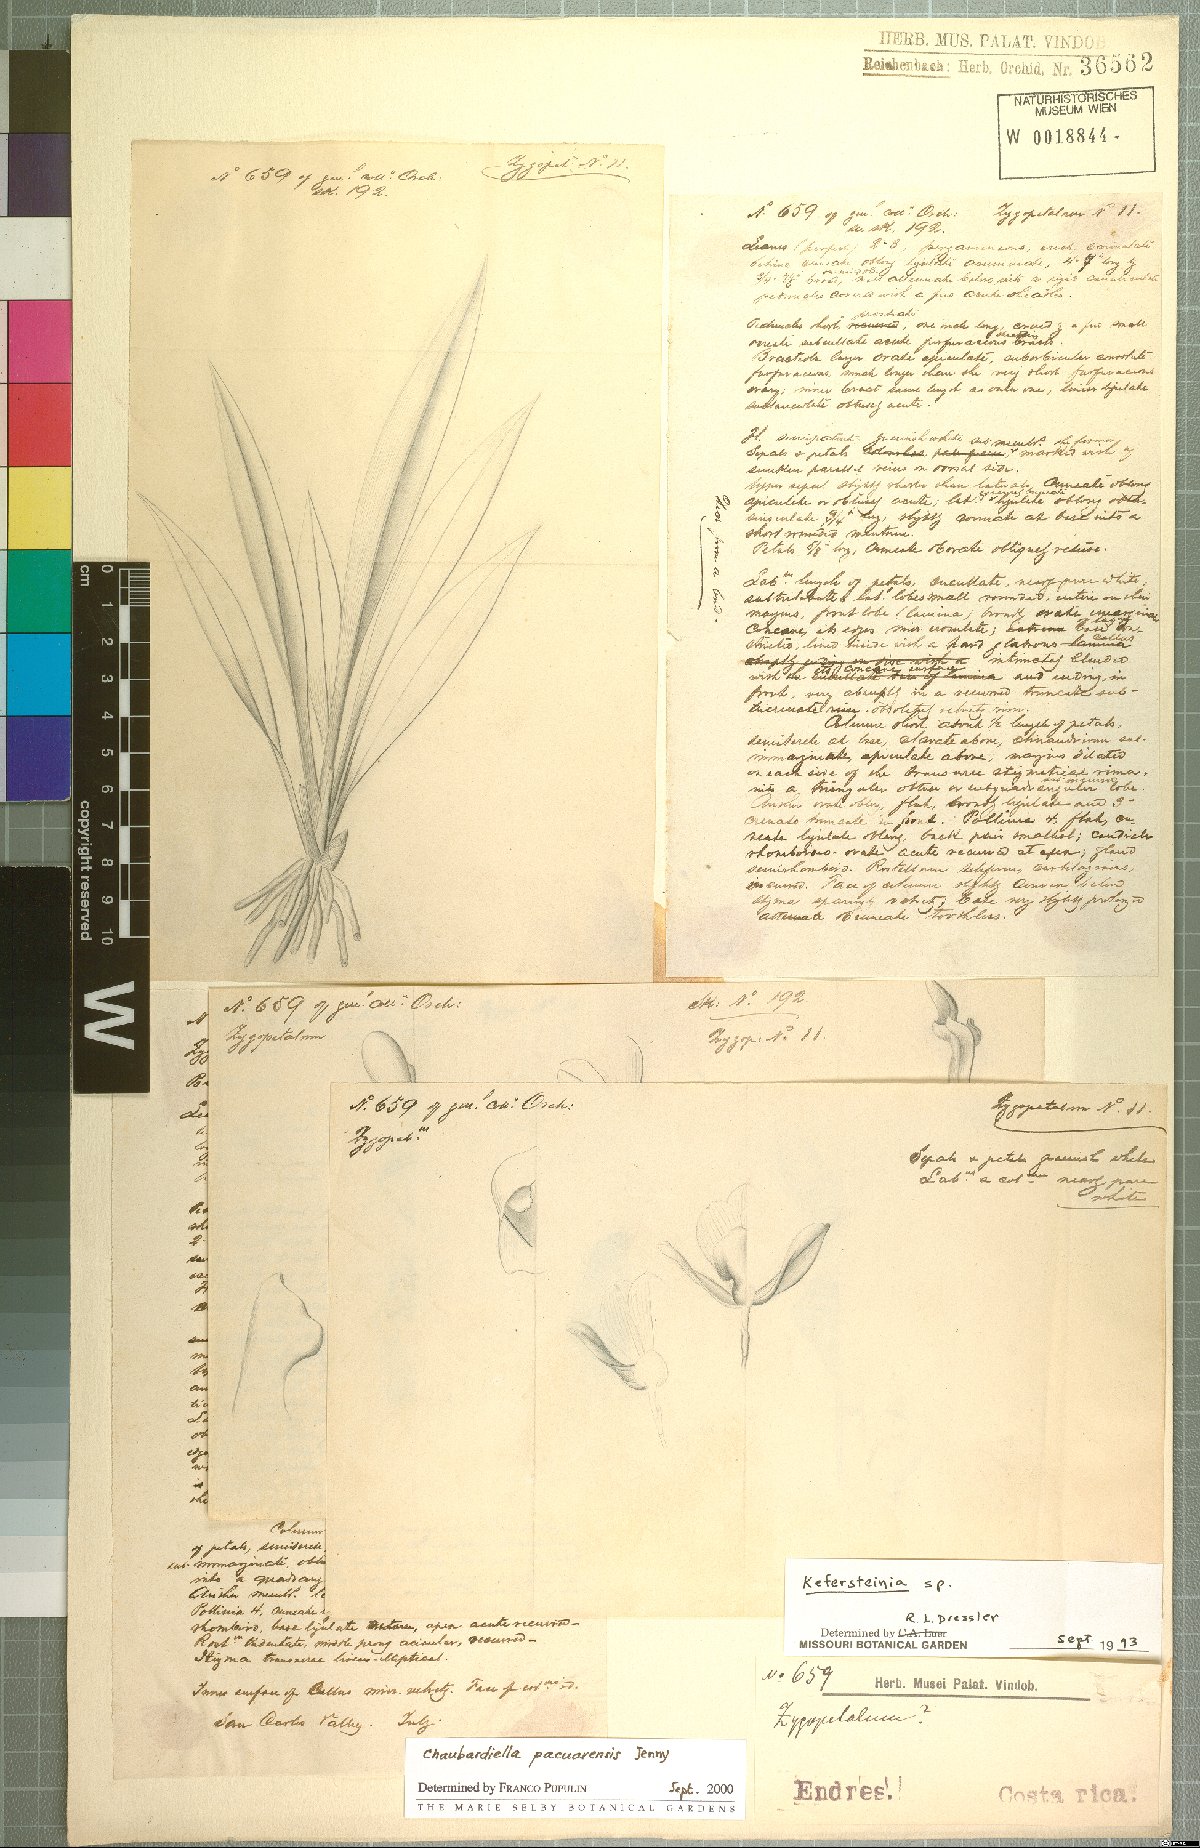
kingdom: Plantae
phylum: Tracheophyta
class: Liliopsida
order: Asparagales
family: Orchidaceae
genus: Chaubardiella
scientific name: Chaubardiella pacuarensis
